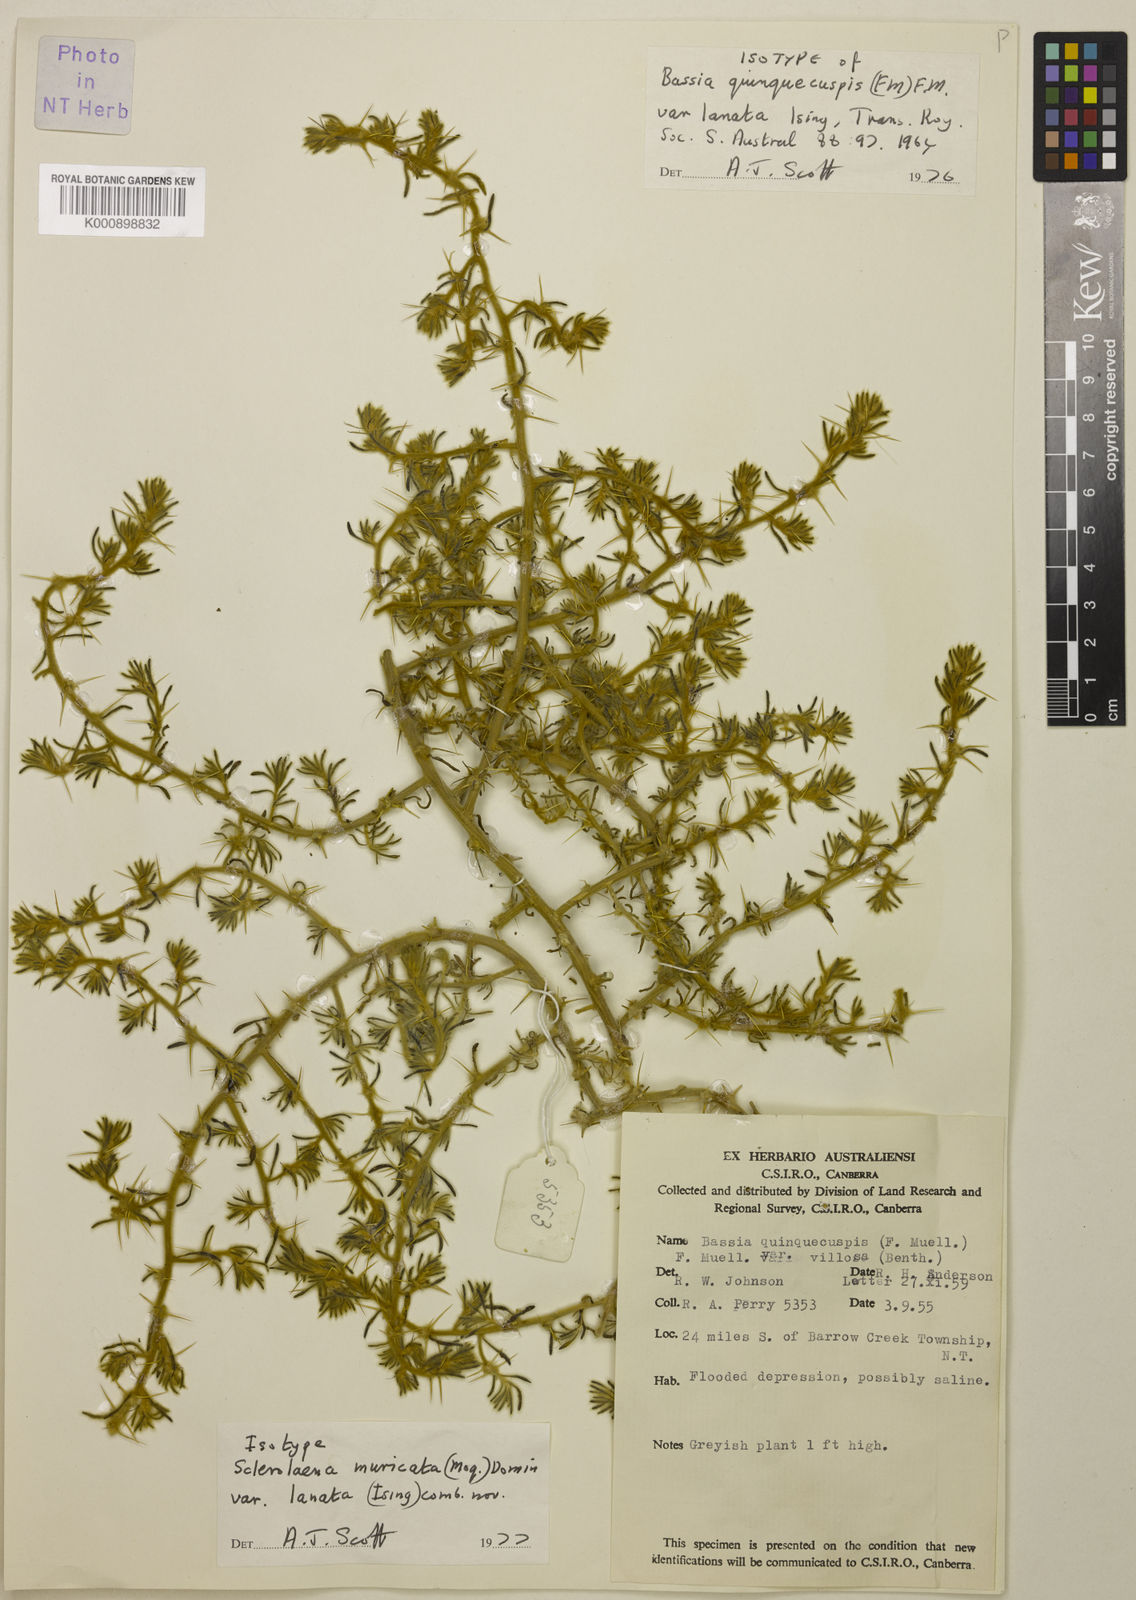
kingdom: Plantae
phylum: Tracheophyta
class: Magnoliopsida
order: Caryophyllales
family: Amaranthaceae
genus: Sclerolaena
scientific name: Sclerolaena deserticola
